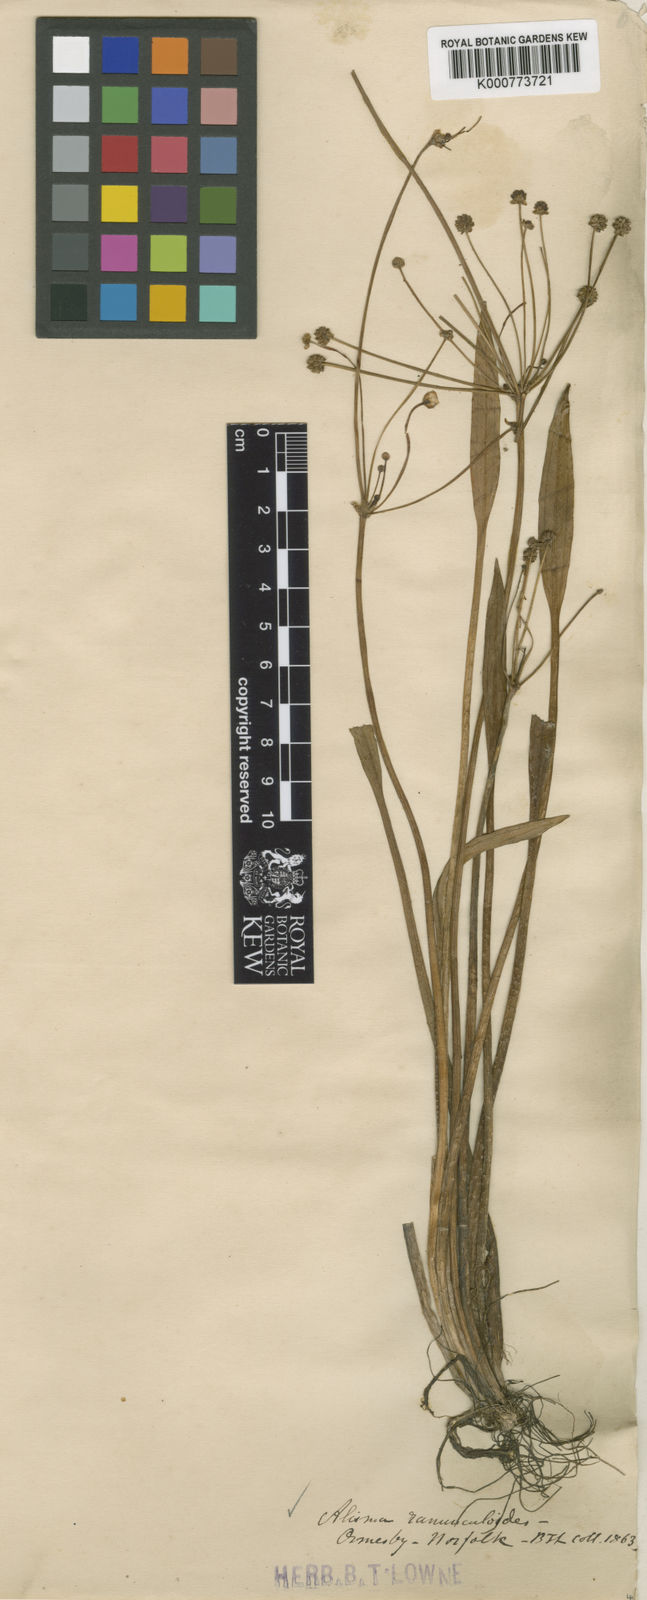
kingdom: Plantae
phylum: Tracheophyta
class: Liliopsida
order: Alismatales
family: Alismataceae
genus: Baldellia
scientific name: Baldellia ranunculoides
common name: Lesser water-plantain
